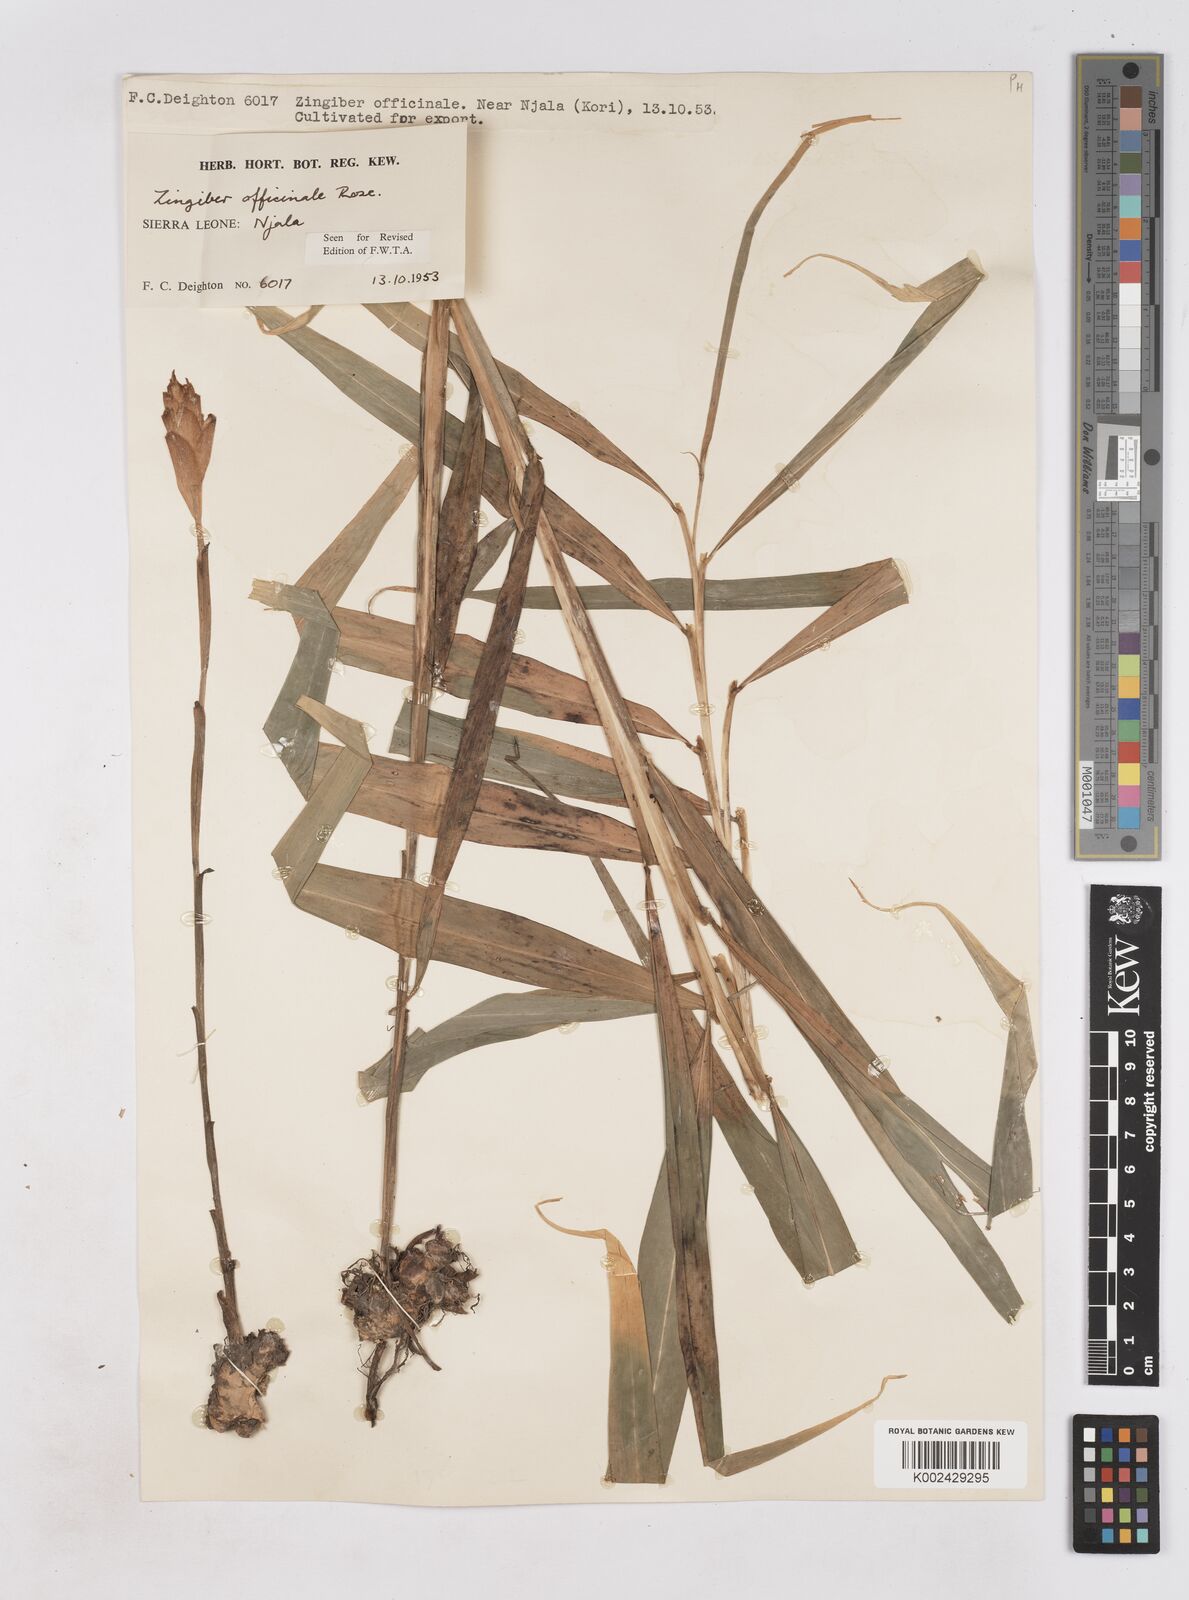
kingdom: Plantae
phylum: Tracheophyta
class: Liliopsida
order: Zingiberales
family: Zingiberaceae
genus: Zingiber
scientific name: Zingiber officinale
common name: Ginger
